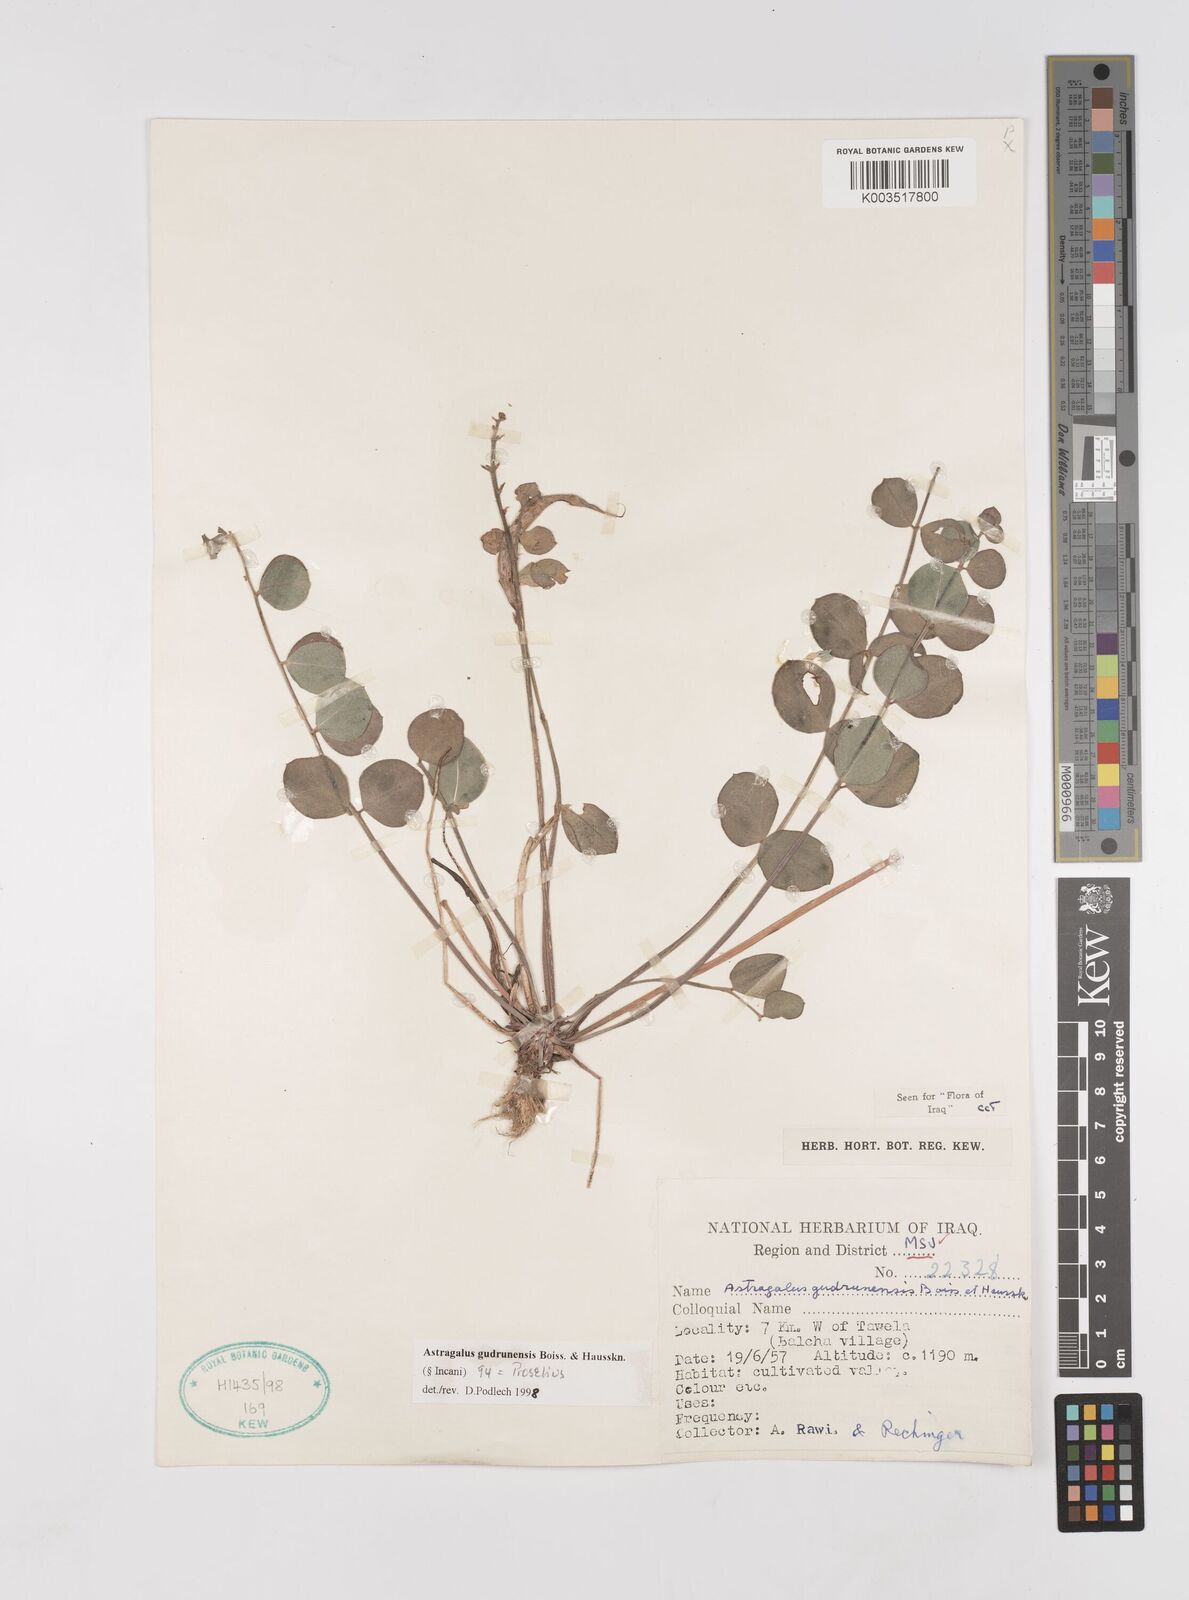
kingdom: Plantae
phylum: Tracheophyta
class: Magnoliopsida
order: Fabales
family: Fabaceae
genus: Astragalus
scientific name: Astragalus gudrunensis
